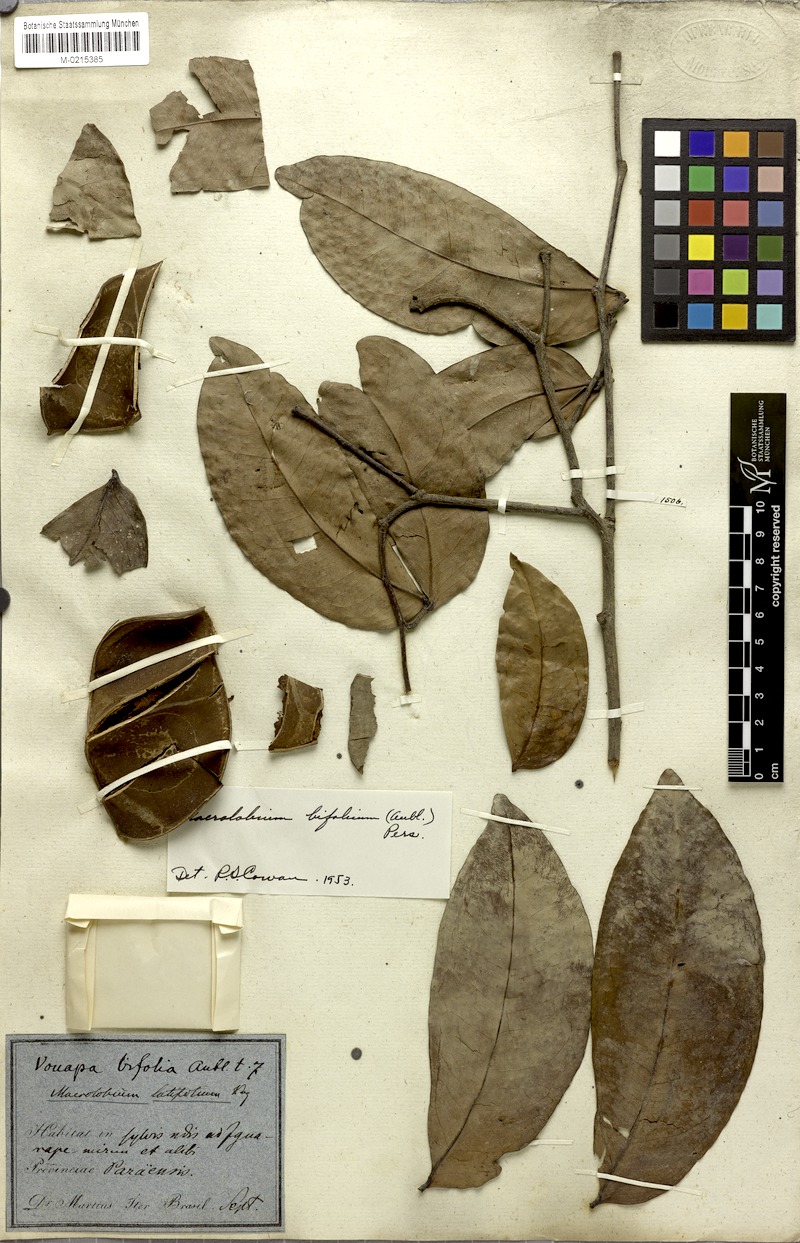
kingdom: Plantae
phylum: Tracheophyta
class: Magnoliopsida
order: Fabales
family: Fabaceae
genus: Macrolobium
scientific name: Macrolobium bifolium
